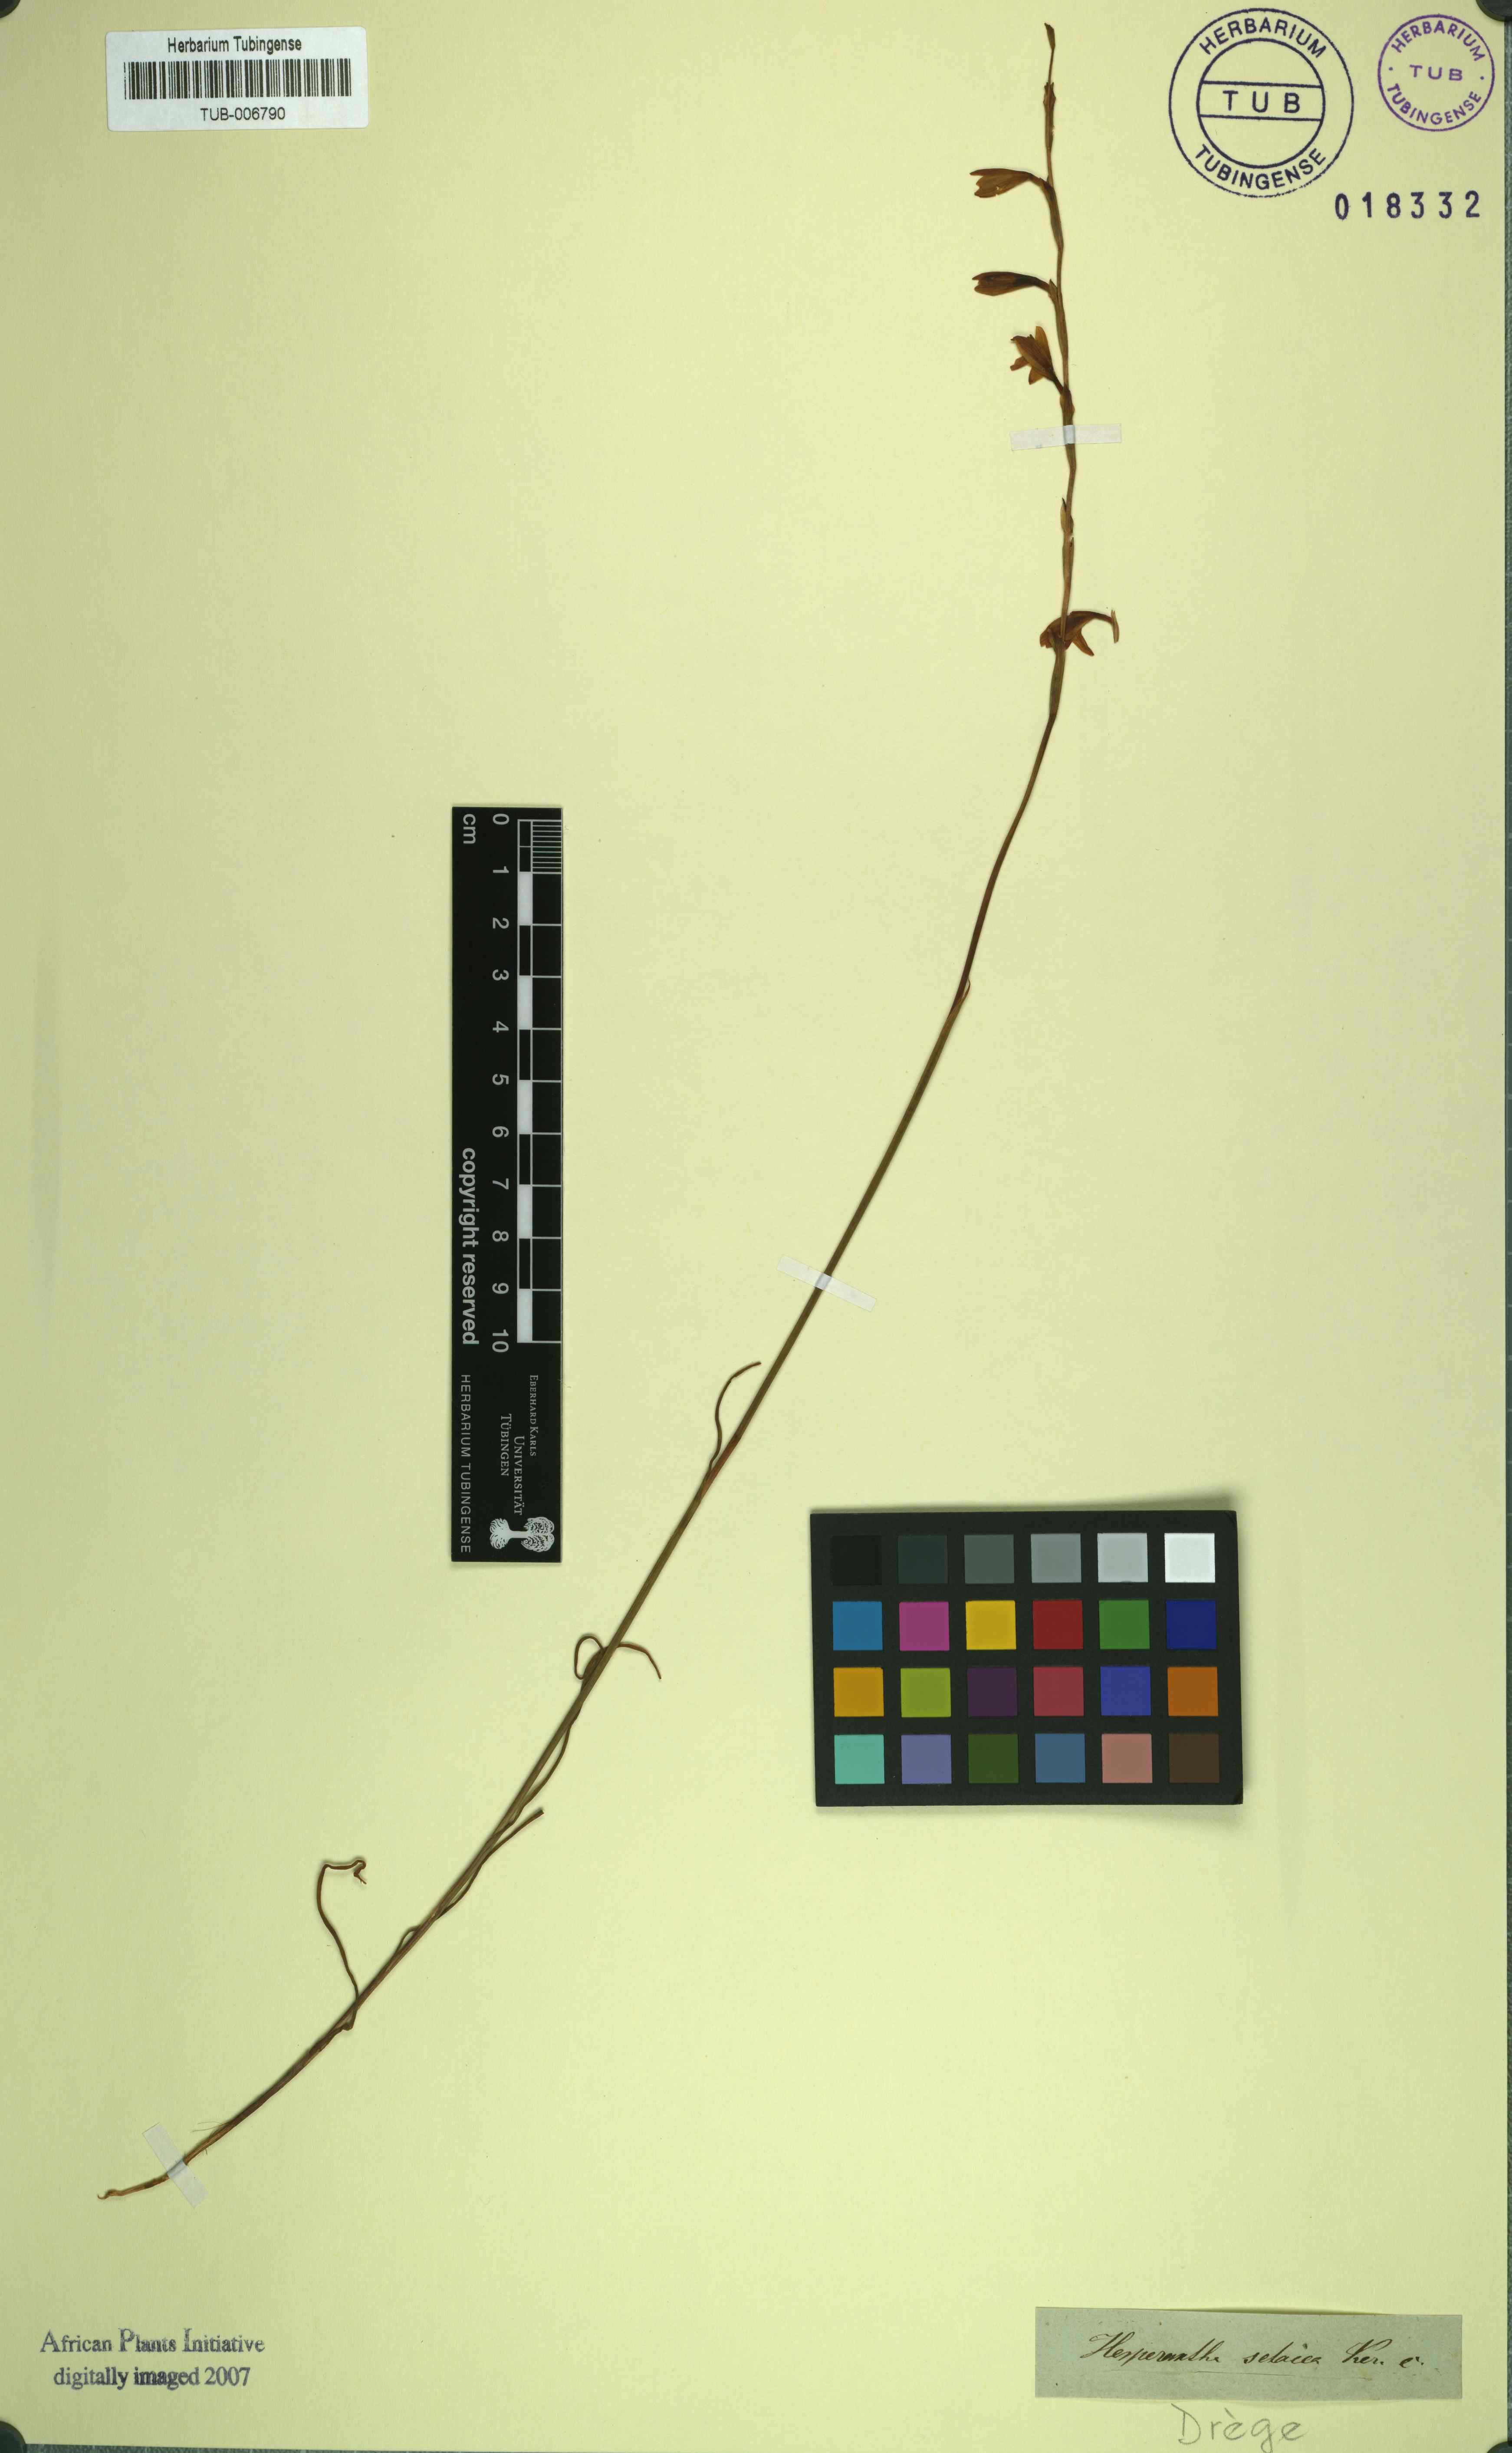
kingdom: Plantae
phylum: Tracheophyta
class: Liliopsida
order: Asparagales
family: Iridaceae
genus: Hesperantha
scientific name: Hesperantha radiata
